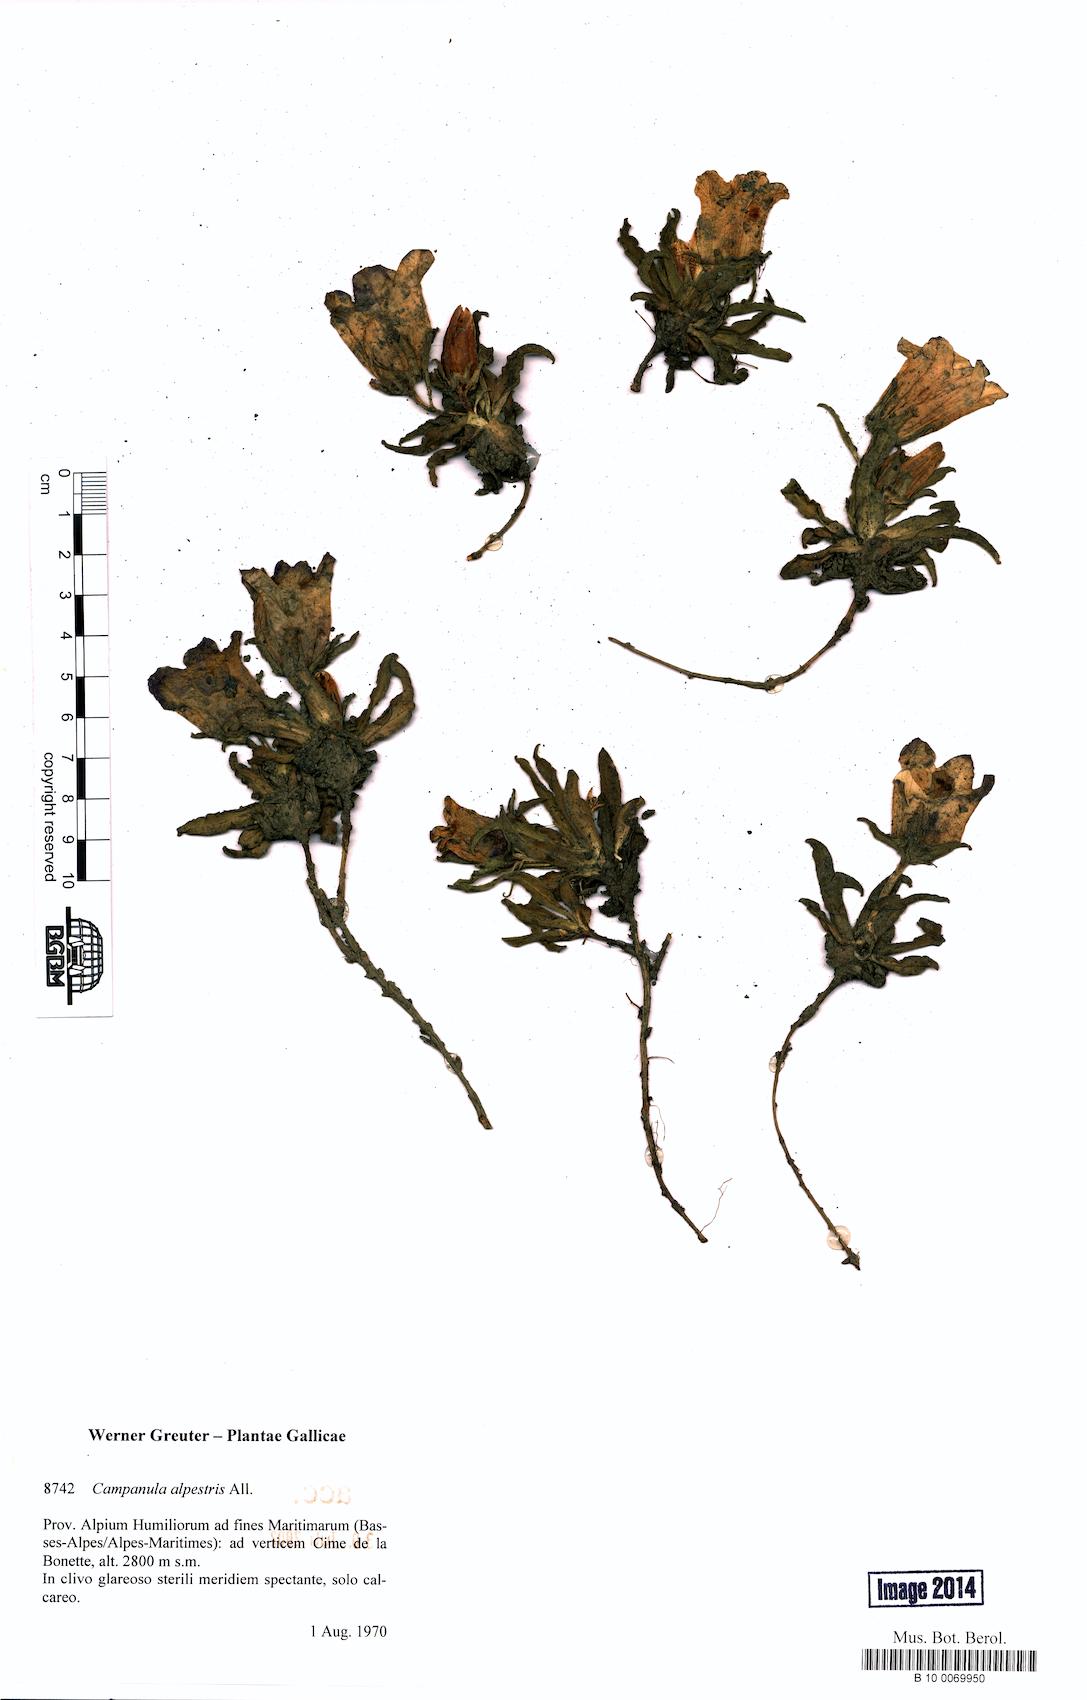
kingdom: Plantae
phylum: Tracheophyta
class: Magnoliopsida
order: Asterales
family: Campanulaceae
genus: Campanula
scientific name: Campanula alpestris
